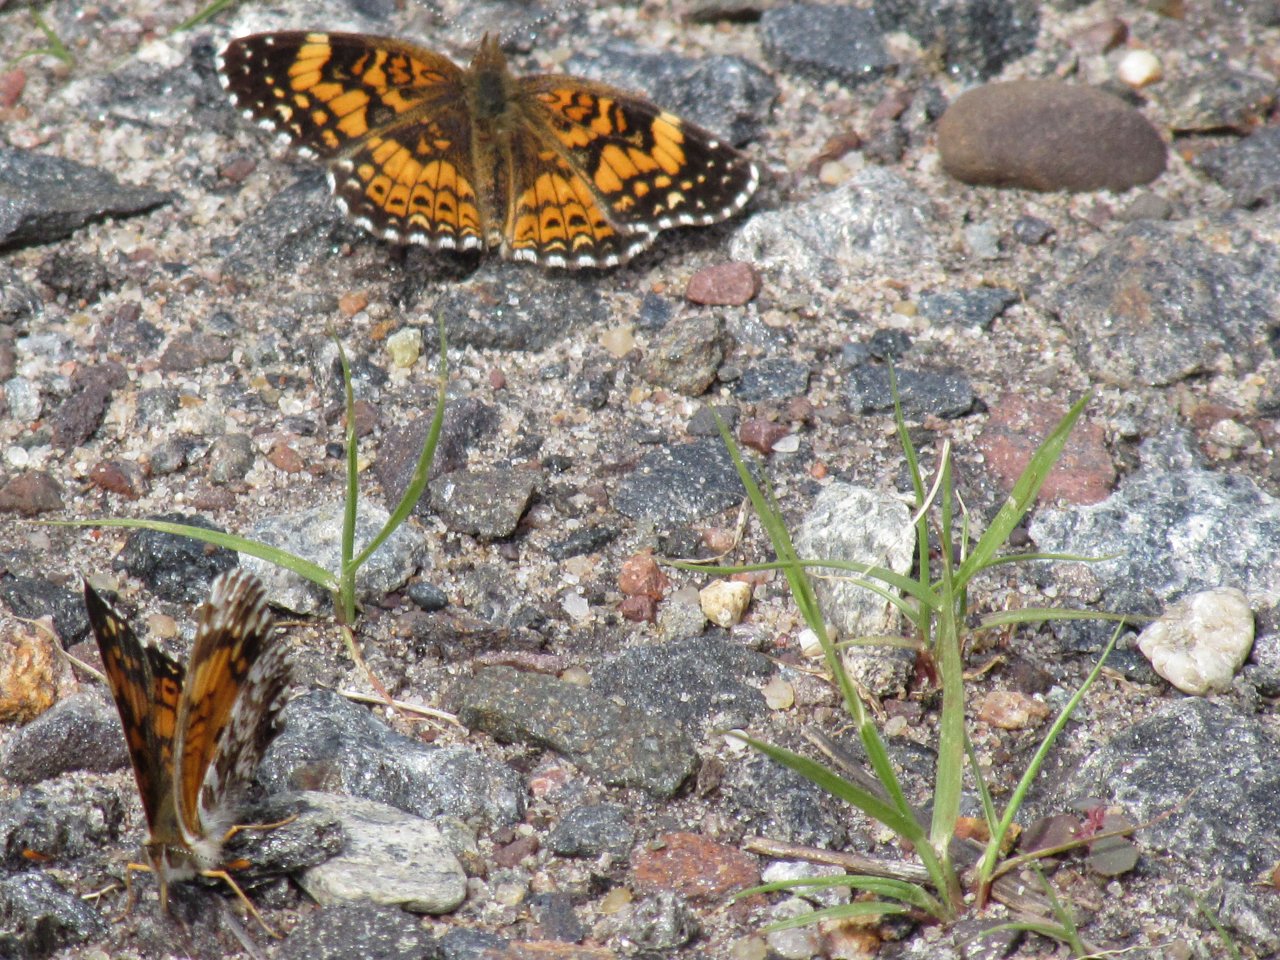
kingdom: Animalia
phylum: Arthropoda
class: Insecta
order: Lepidoptera
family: Nymphalidae
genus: Chlosyne
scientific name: Chlosyne gorgone
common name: Gorgone Checkerspot
